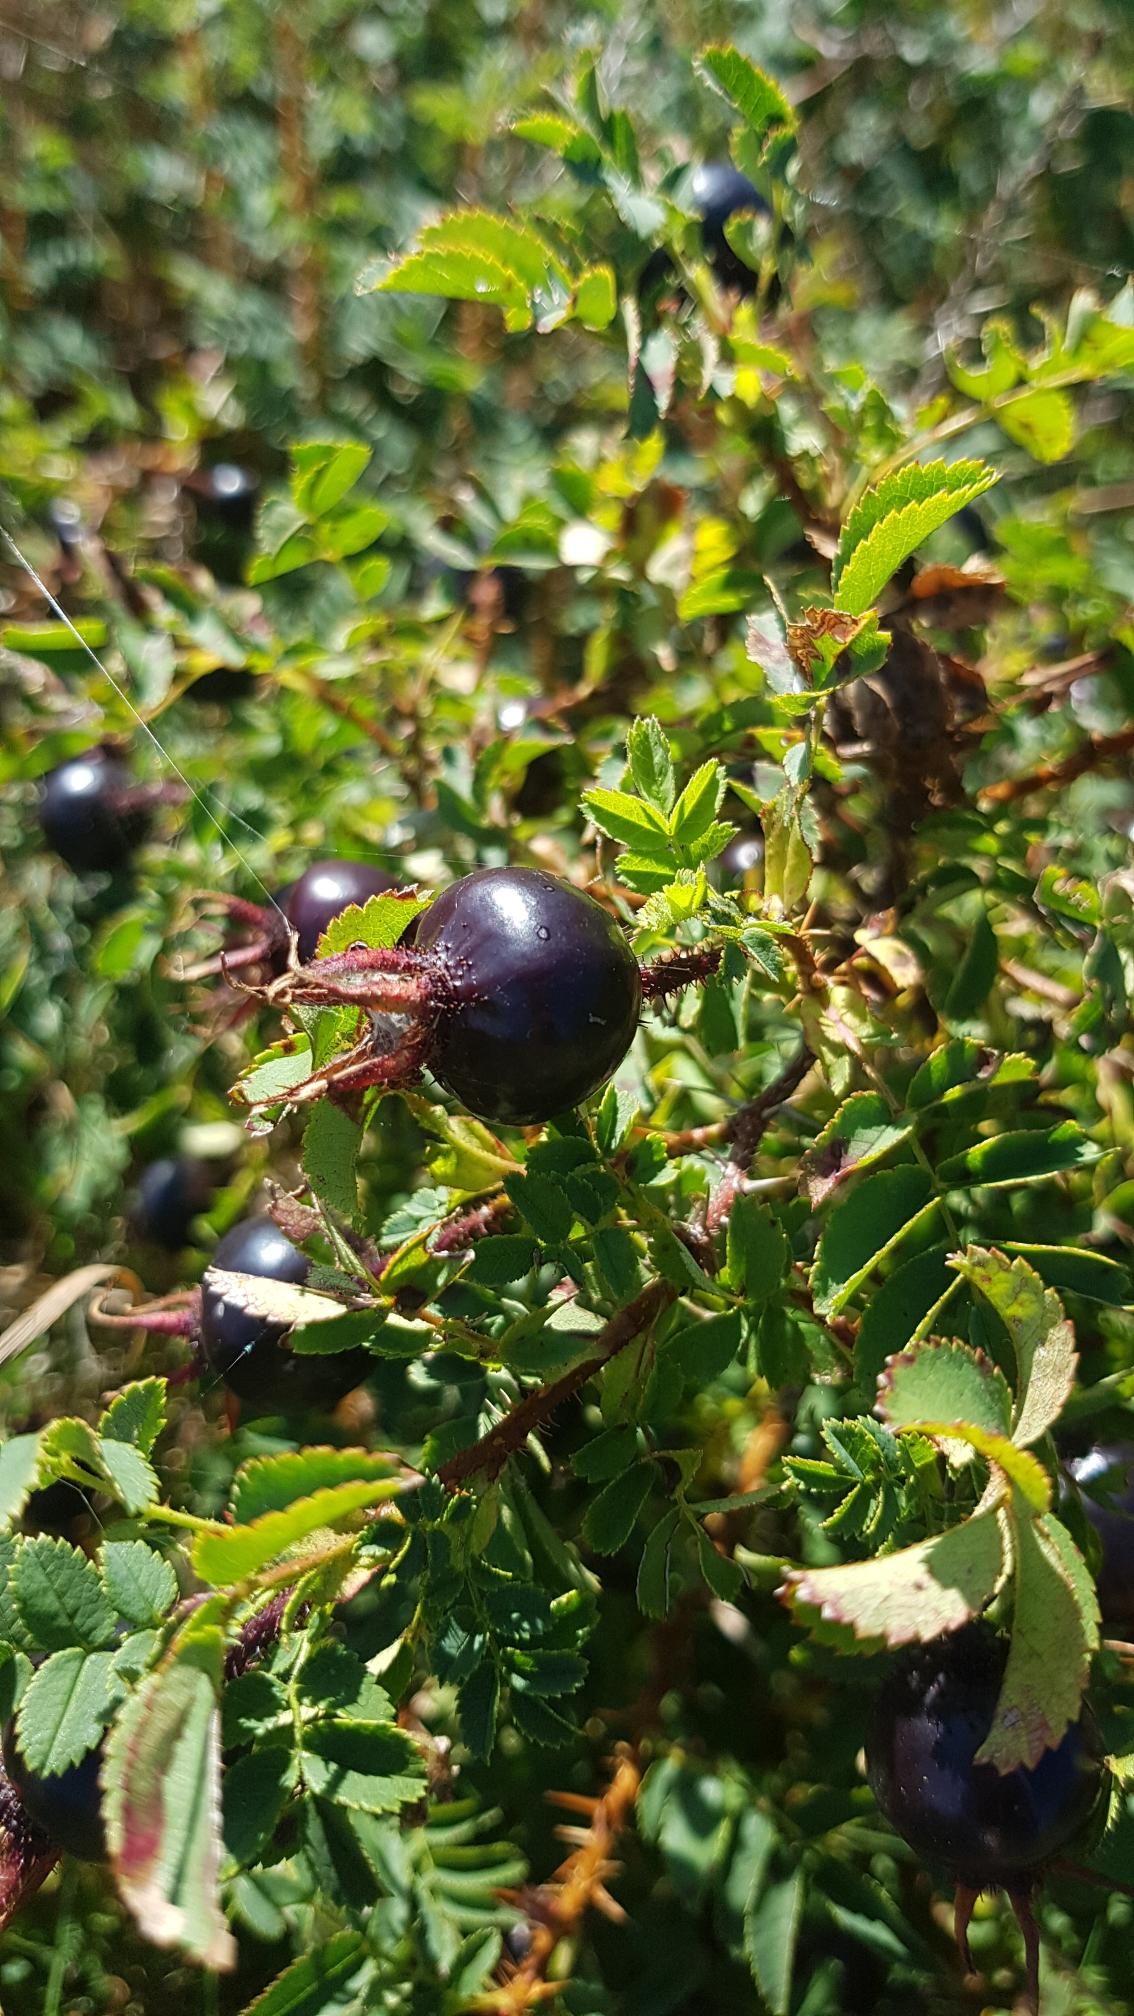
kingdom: Plantae
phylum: Tracheophyta
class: Magnoliopsida
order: Rosales
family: Rosaceae
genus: Rosa
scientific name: Rosa spinosissima
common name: Klit-rose
